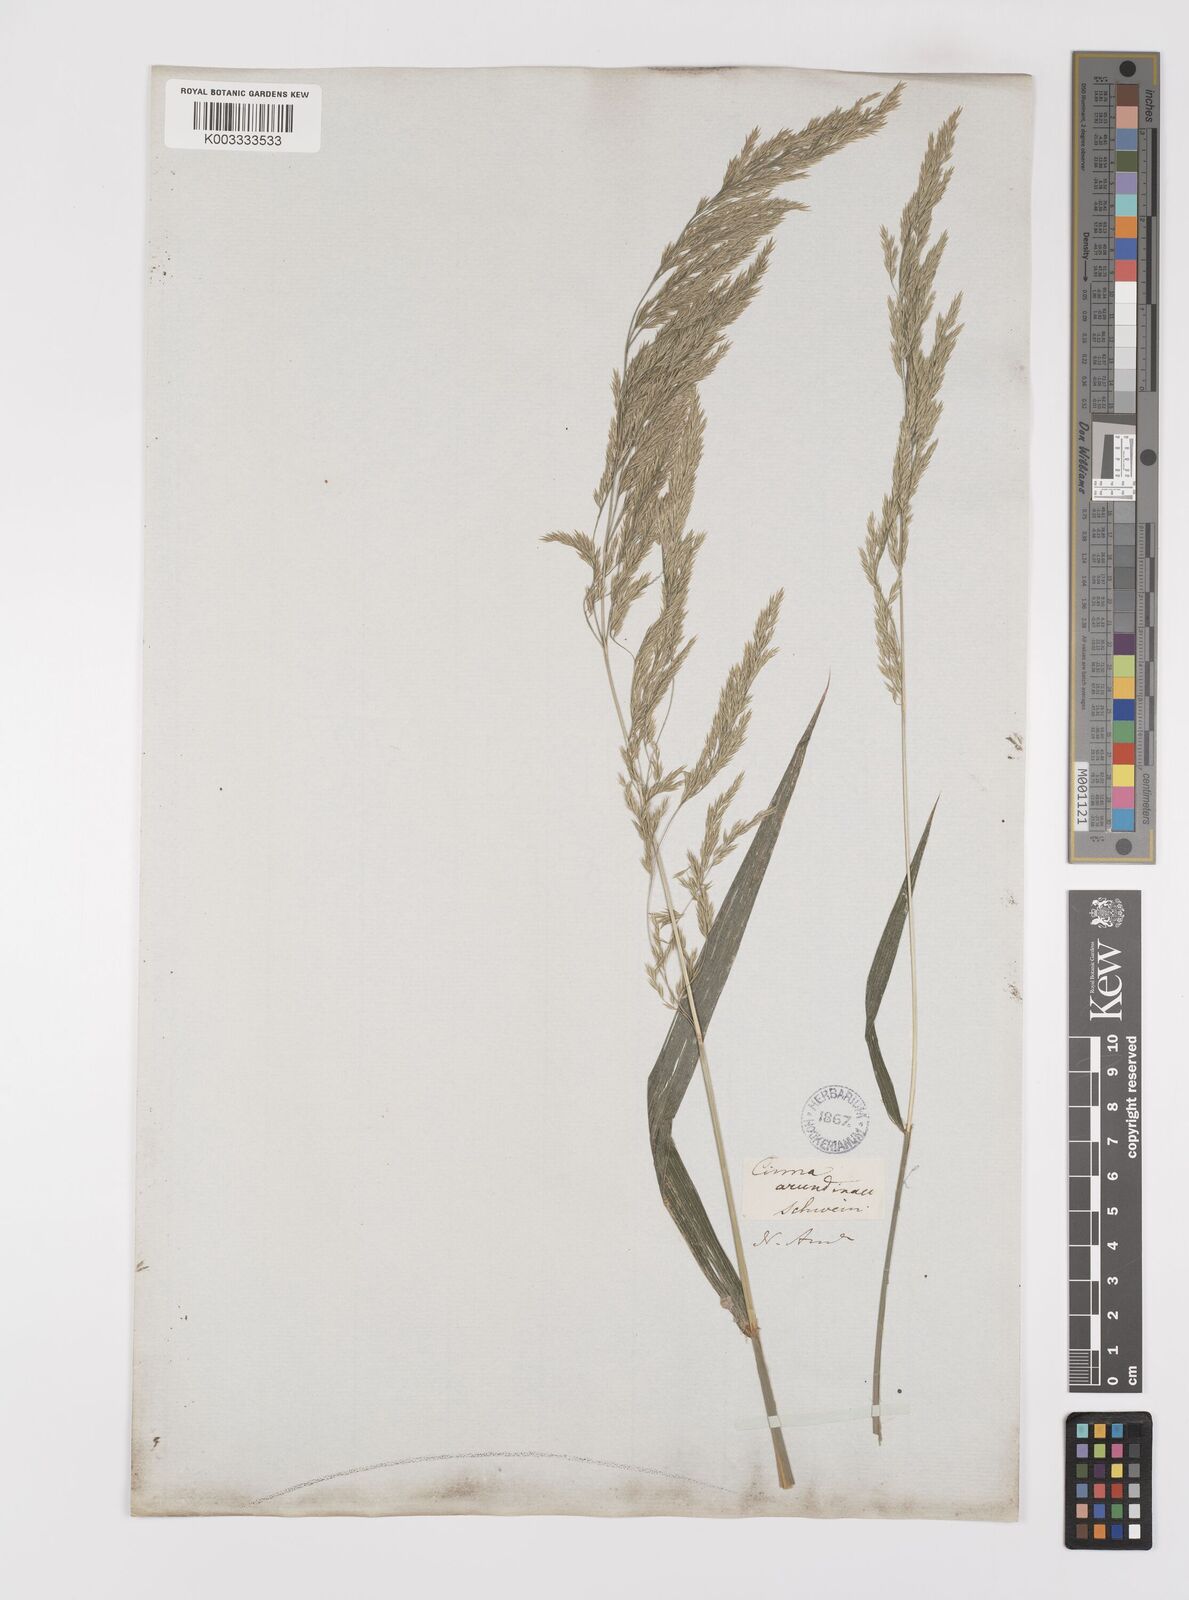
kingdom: Plantae
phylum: Tracheophyta
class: Liliopsida
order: Poales
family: Poaceae
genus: Cinna
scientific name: Cinna
